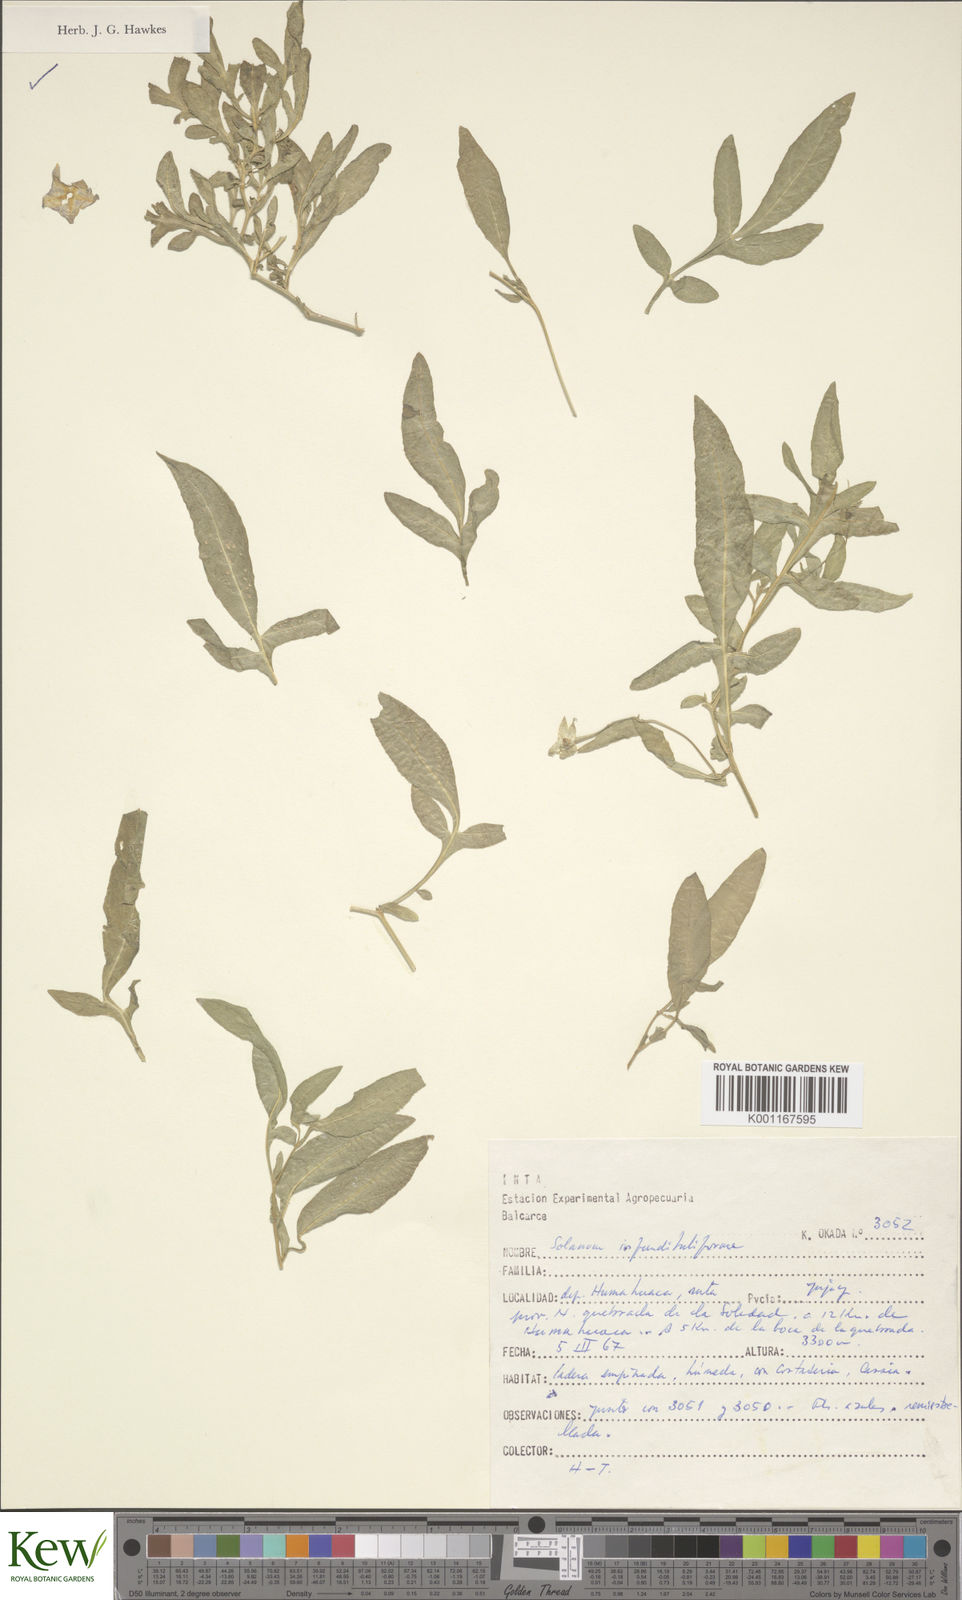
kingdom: Plantae
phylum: Tracheophyta
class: Magnoliopsida
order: Solanales
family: Solanaceae
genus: Solanum
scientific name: Solanum infundibuliforme
